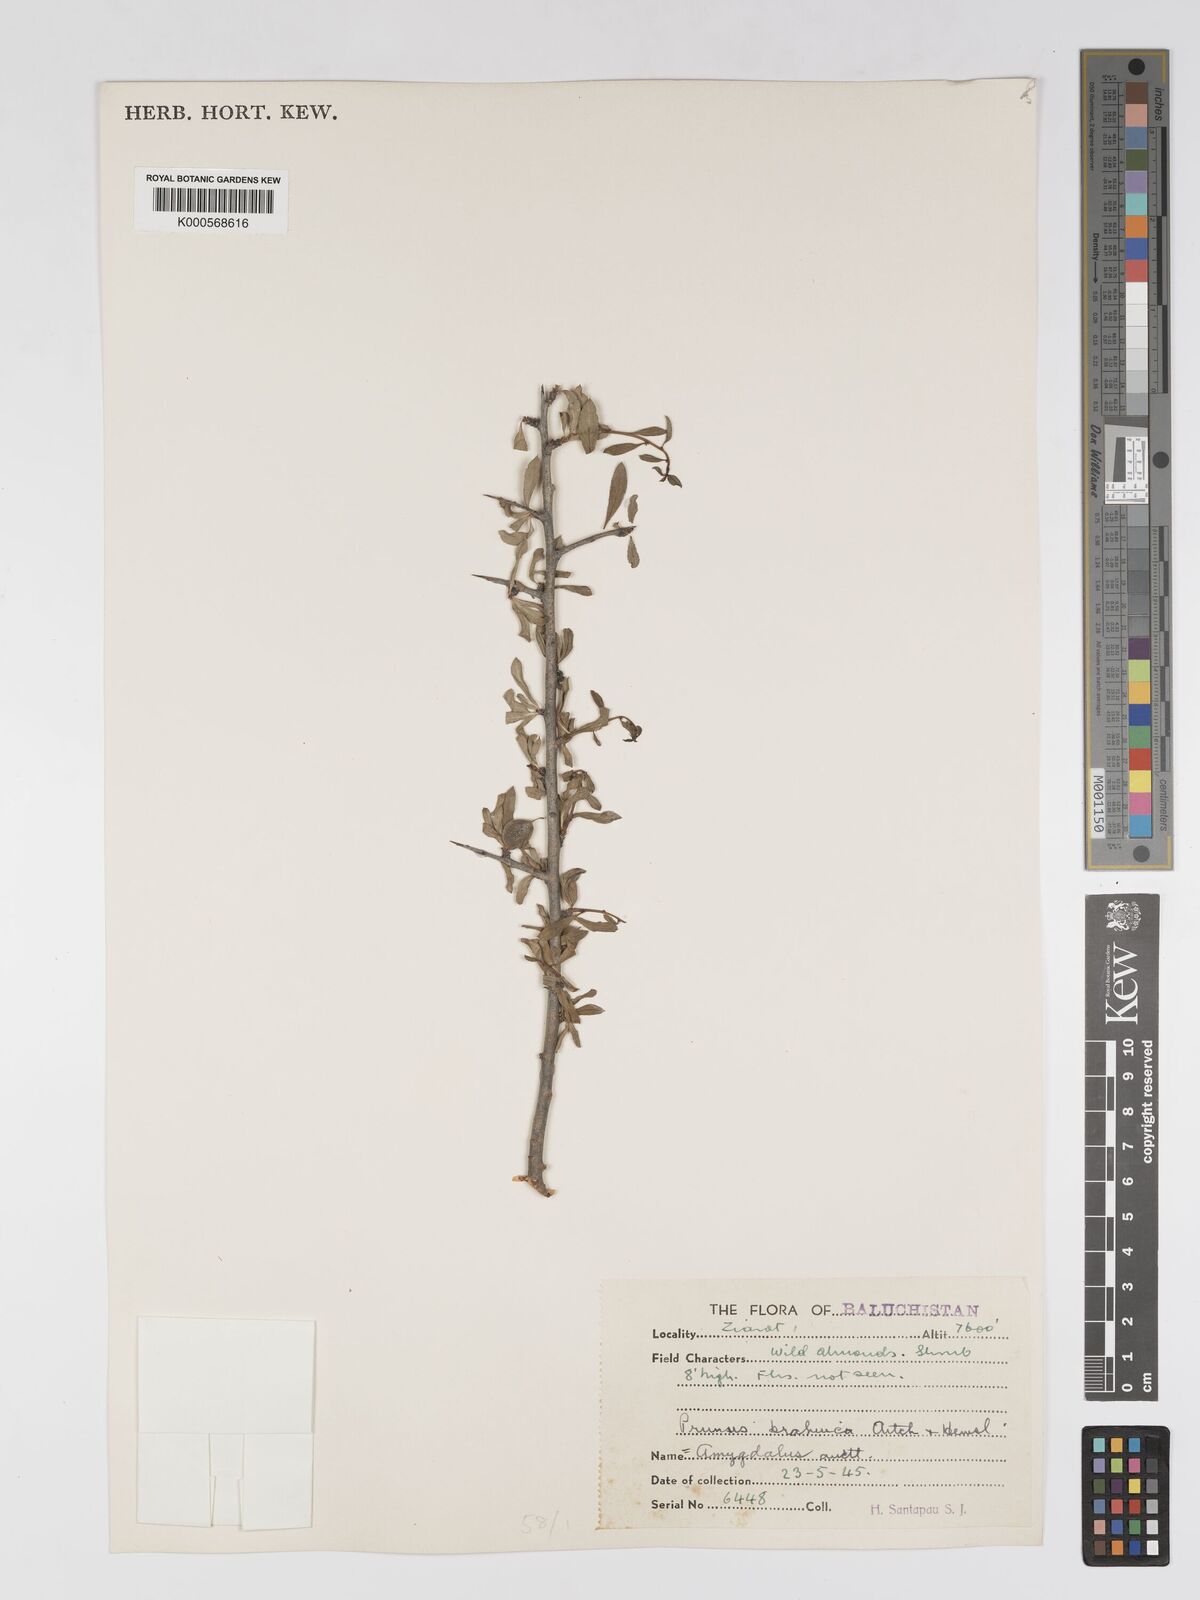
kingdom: Plantae
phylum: Tracheophyta
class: Liliopsida
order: Commelinales
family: Commelinaceae
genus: Dichorisandra
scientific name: Dichorisandra
